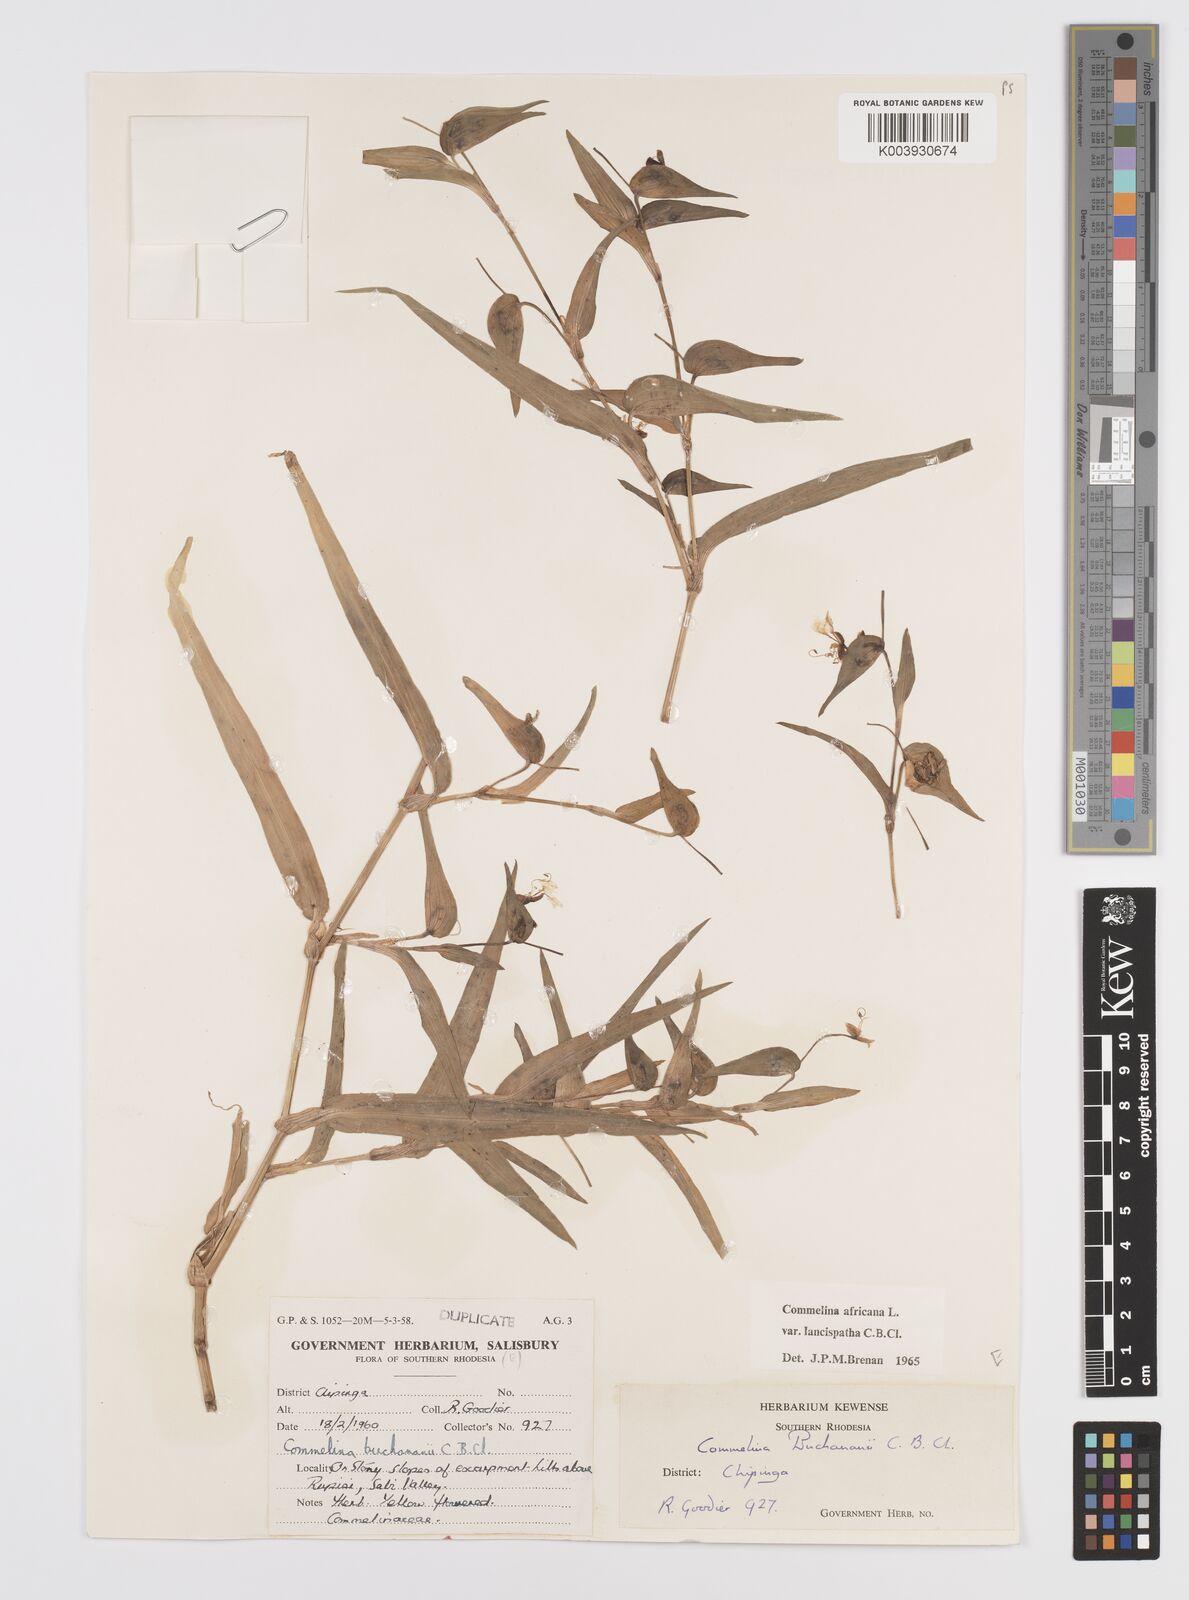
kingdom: Plantae
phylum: Tracheophyta
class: Liliopsida
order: Commelinales
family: Commelinaceae
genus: Commelina
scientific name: Commelina africana
